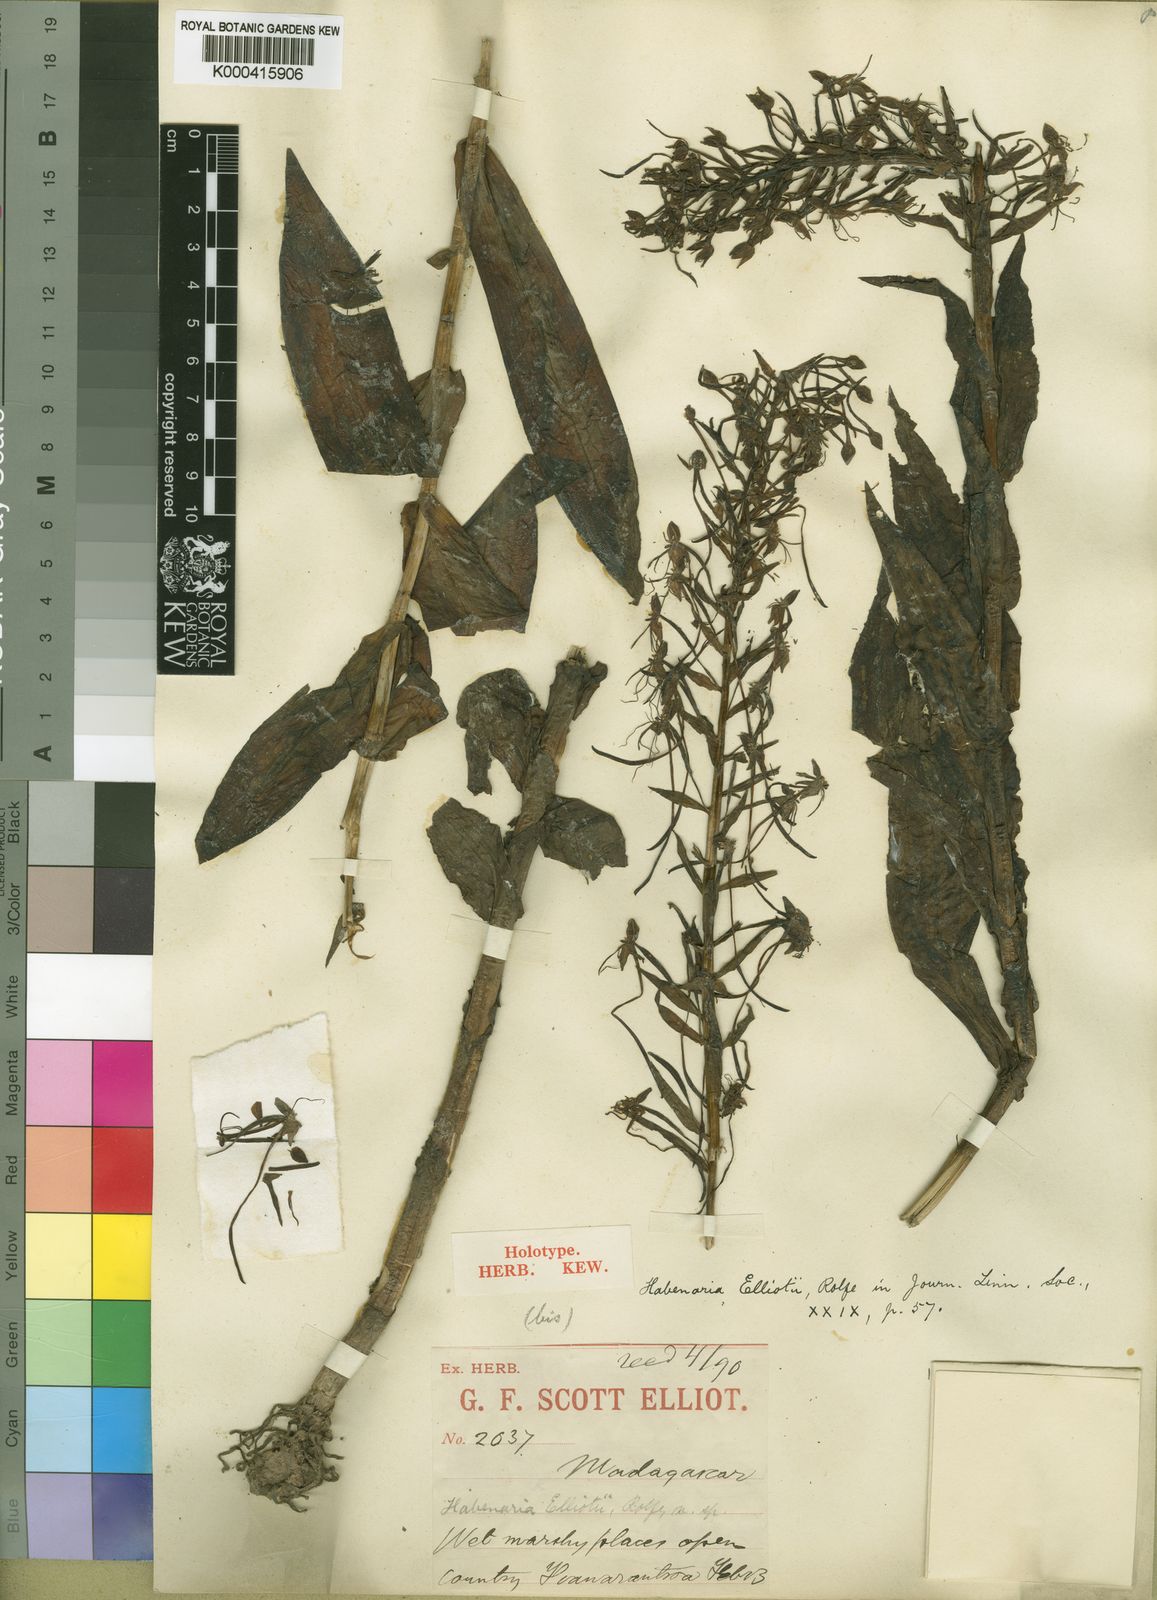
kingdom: Plantae
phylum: Tracheophyta
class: Liliopsida
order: Asparagales
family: Orchidaceae
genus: Habenaria
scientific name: Habenaria clareae
